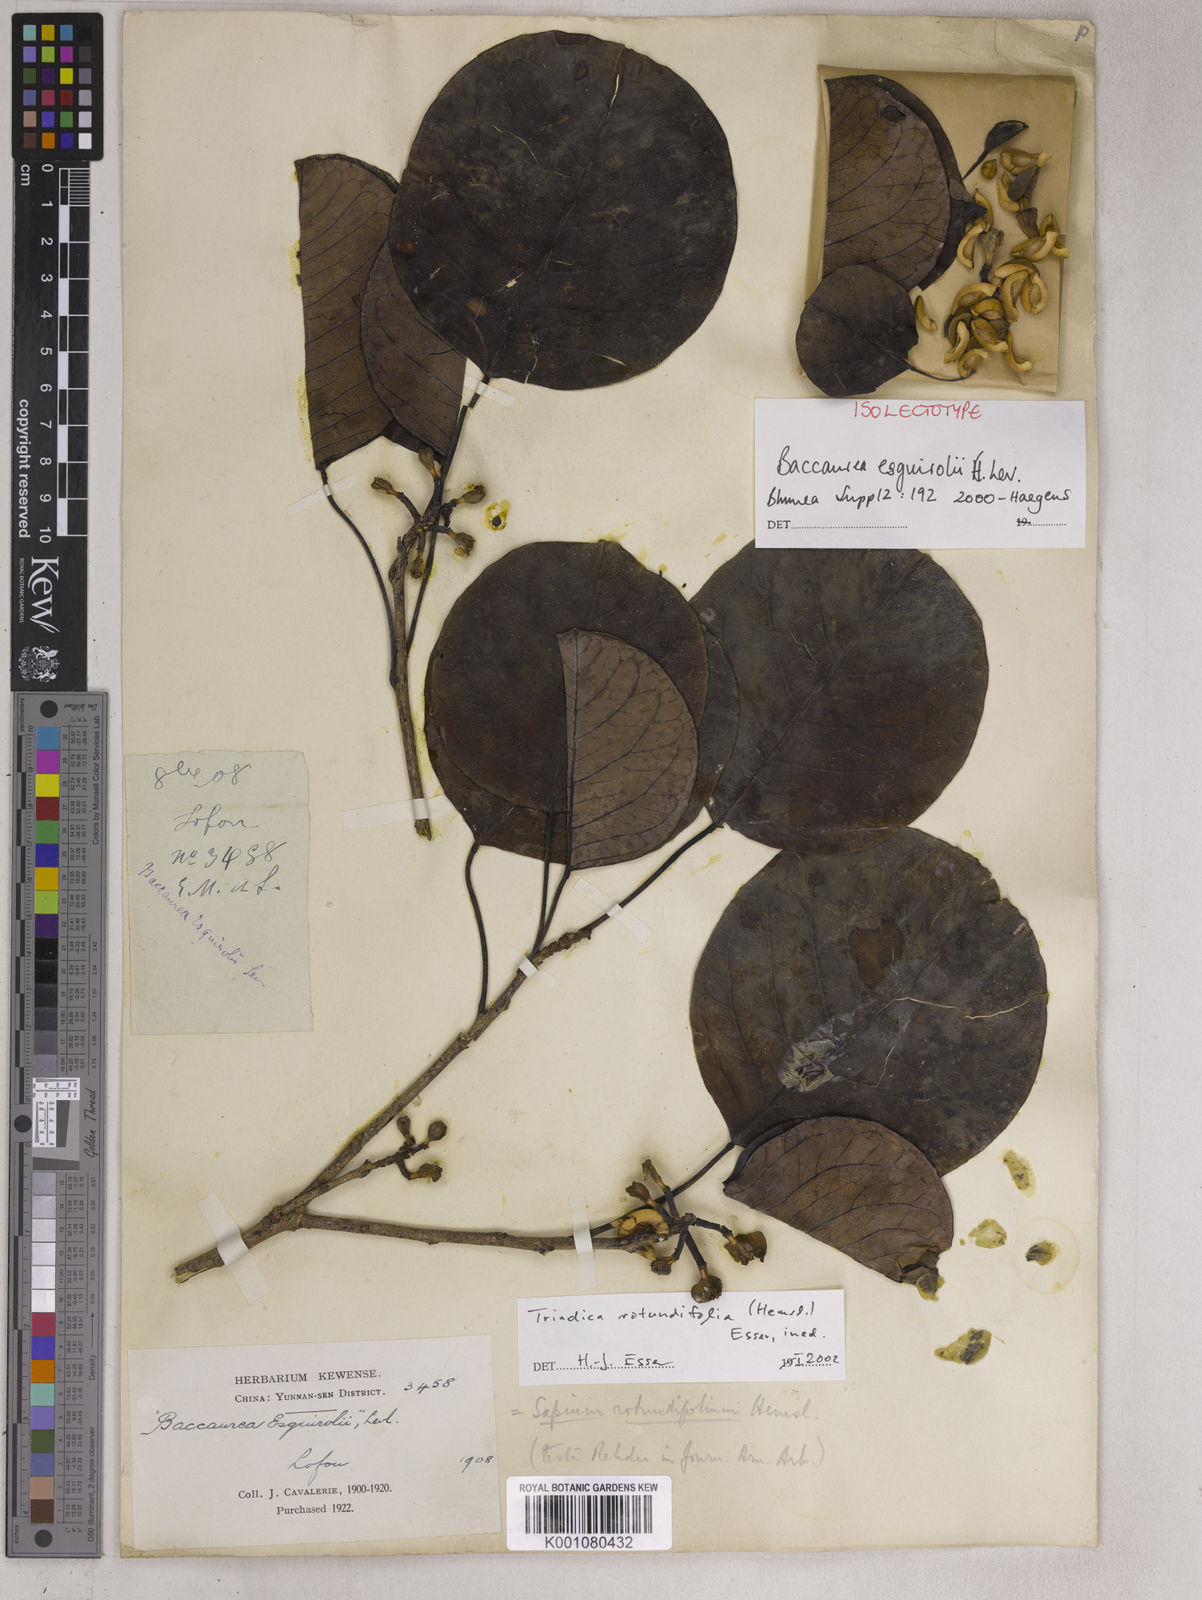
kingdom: Plantae
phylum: Tracheophyta
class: Magnoliopsida
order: Malpighiales
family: Euphorbiaceae
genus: Triadica
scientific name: Triadica rotundifolia
